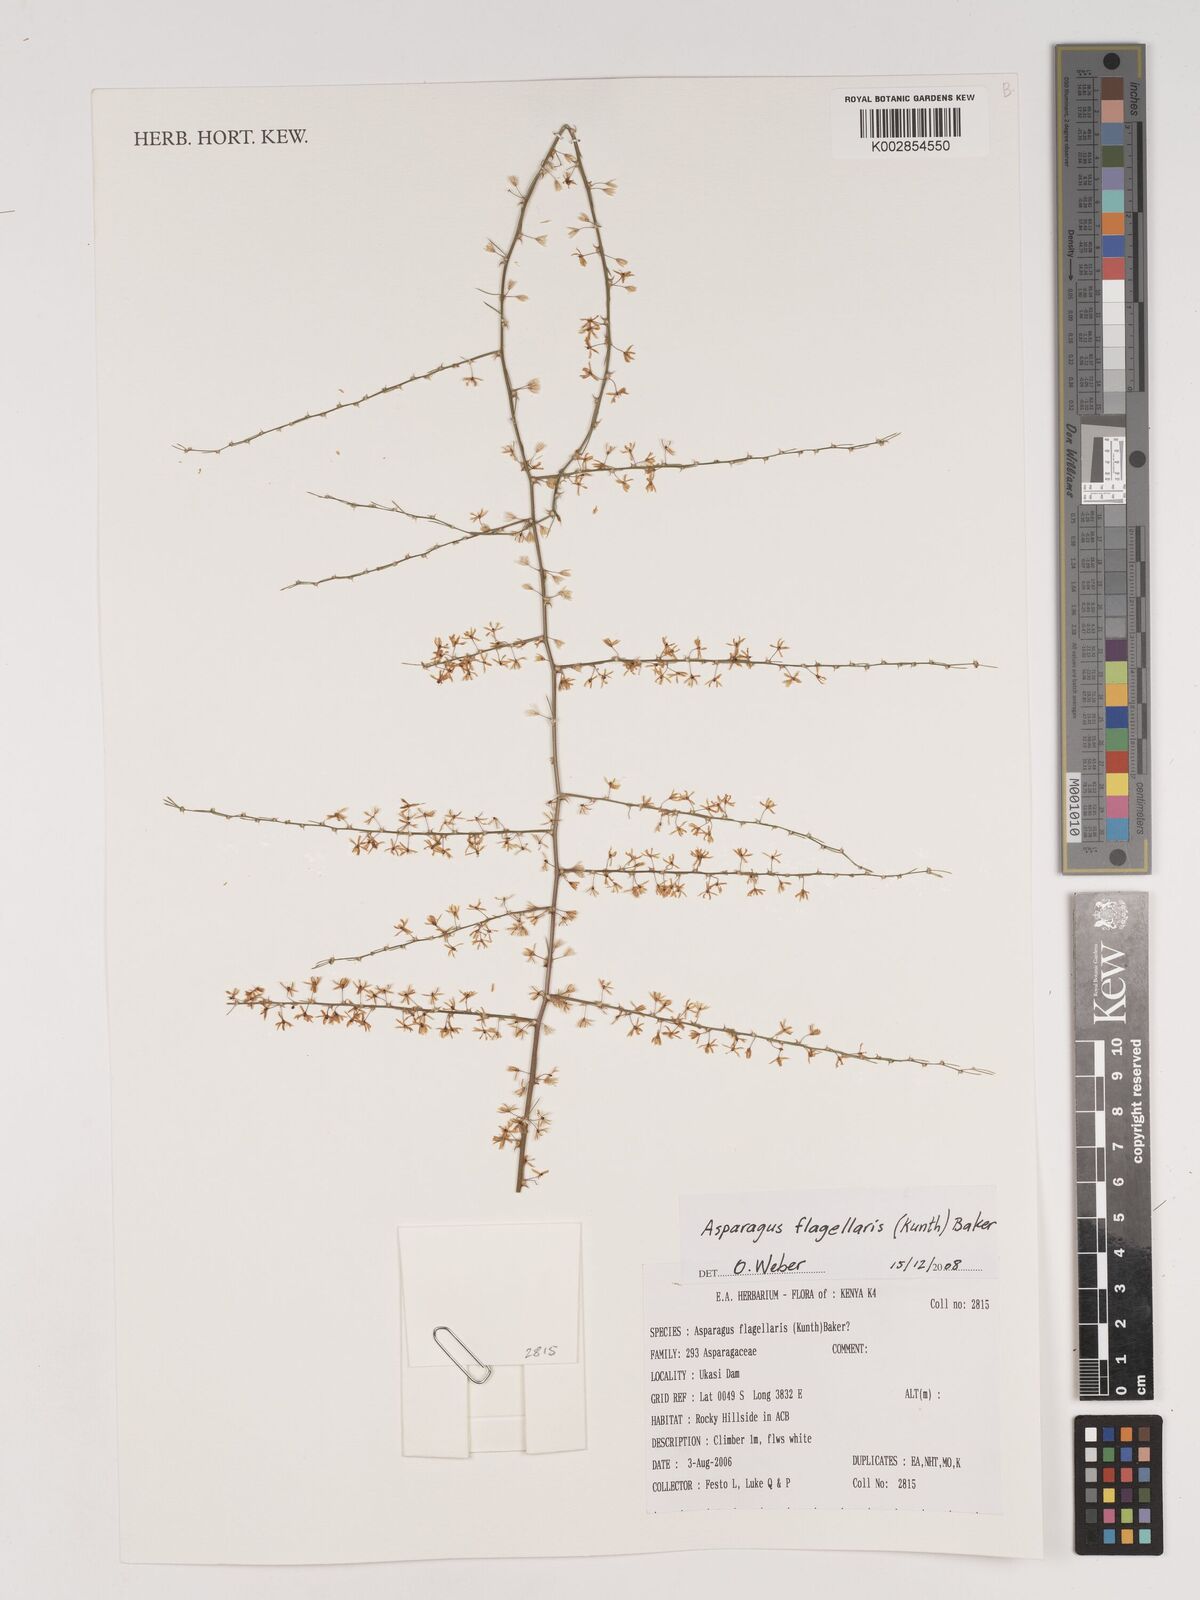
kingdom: Plantae
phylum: Tracheophyta
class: Liliopsida
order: Asparagales
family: Asparagaceae
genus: Asparagus
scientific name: Asparagus flagellaris
